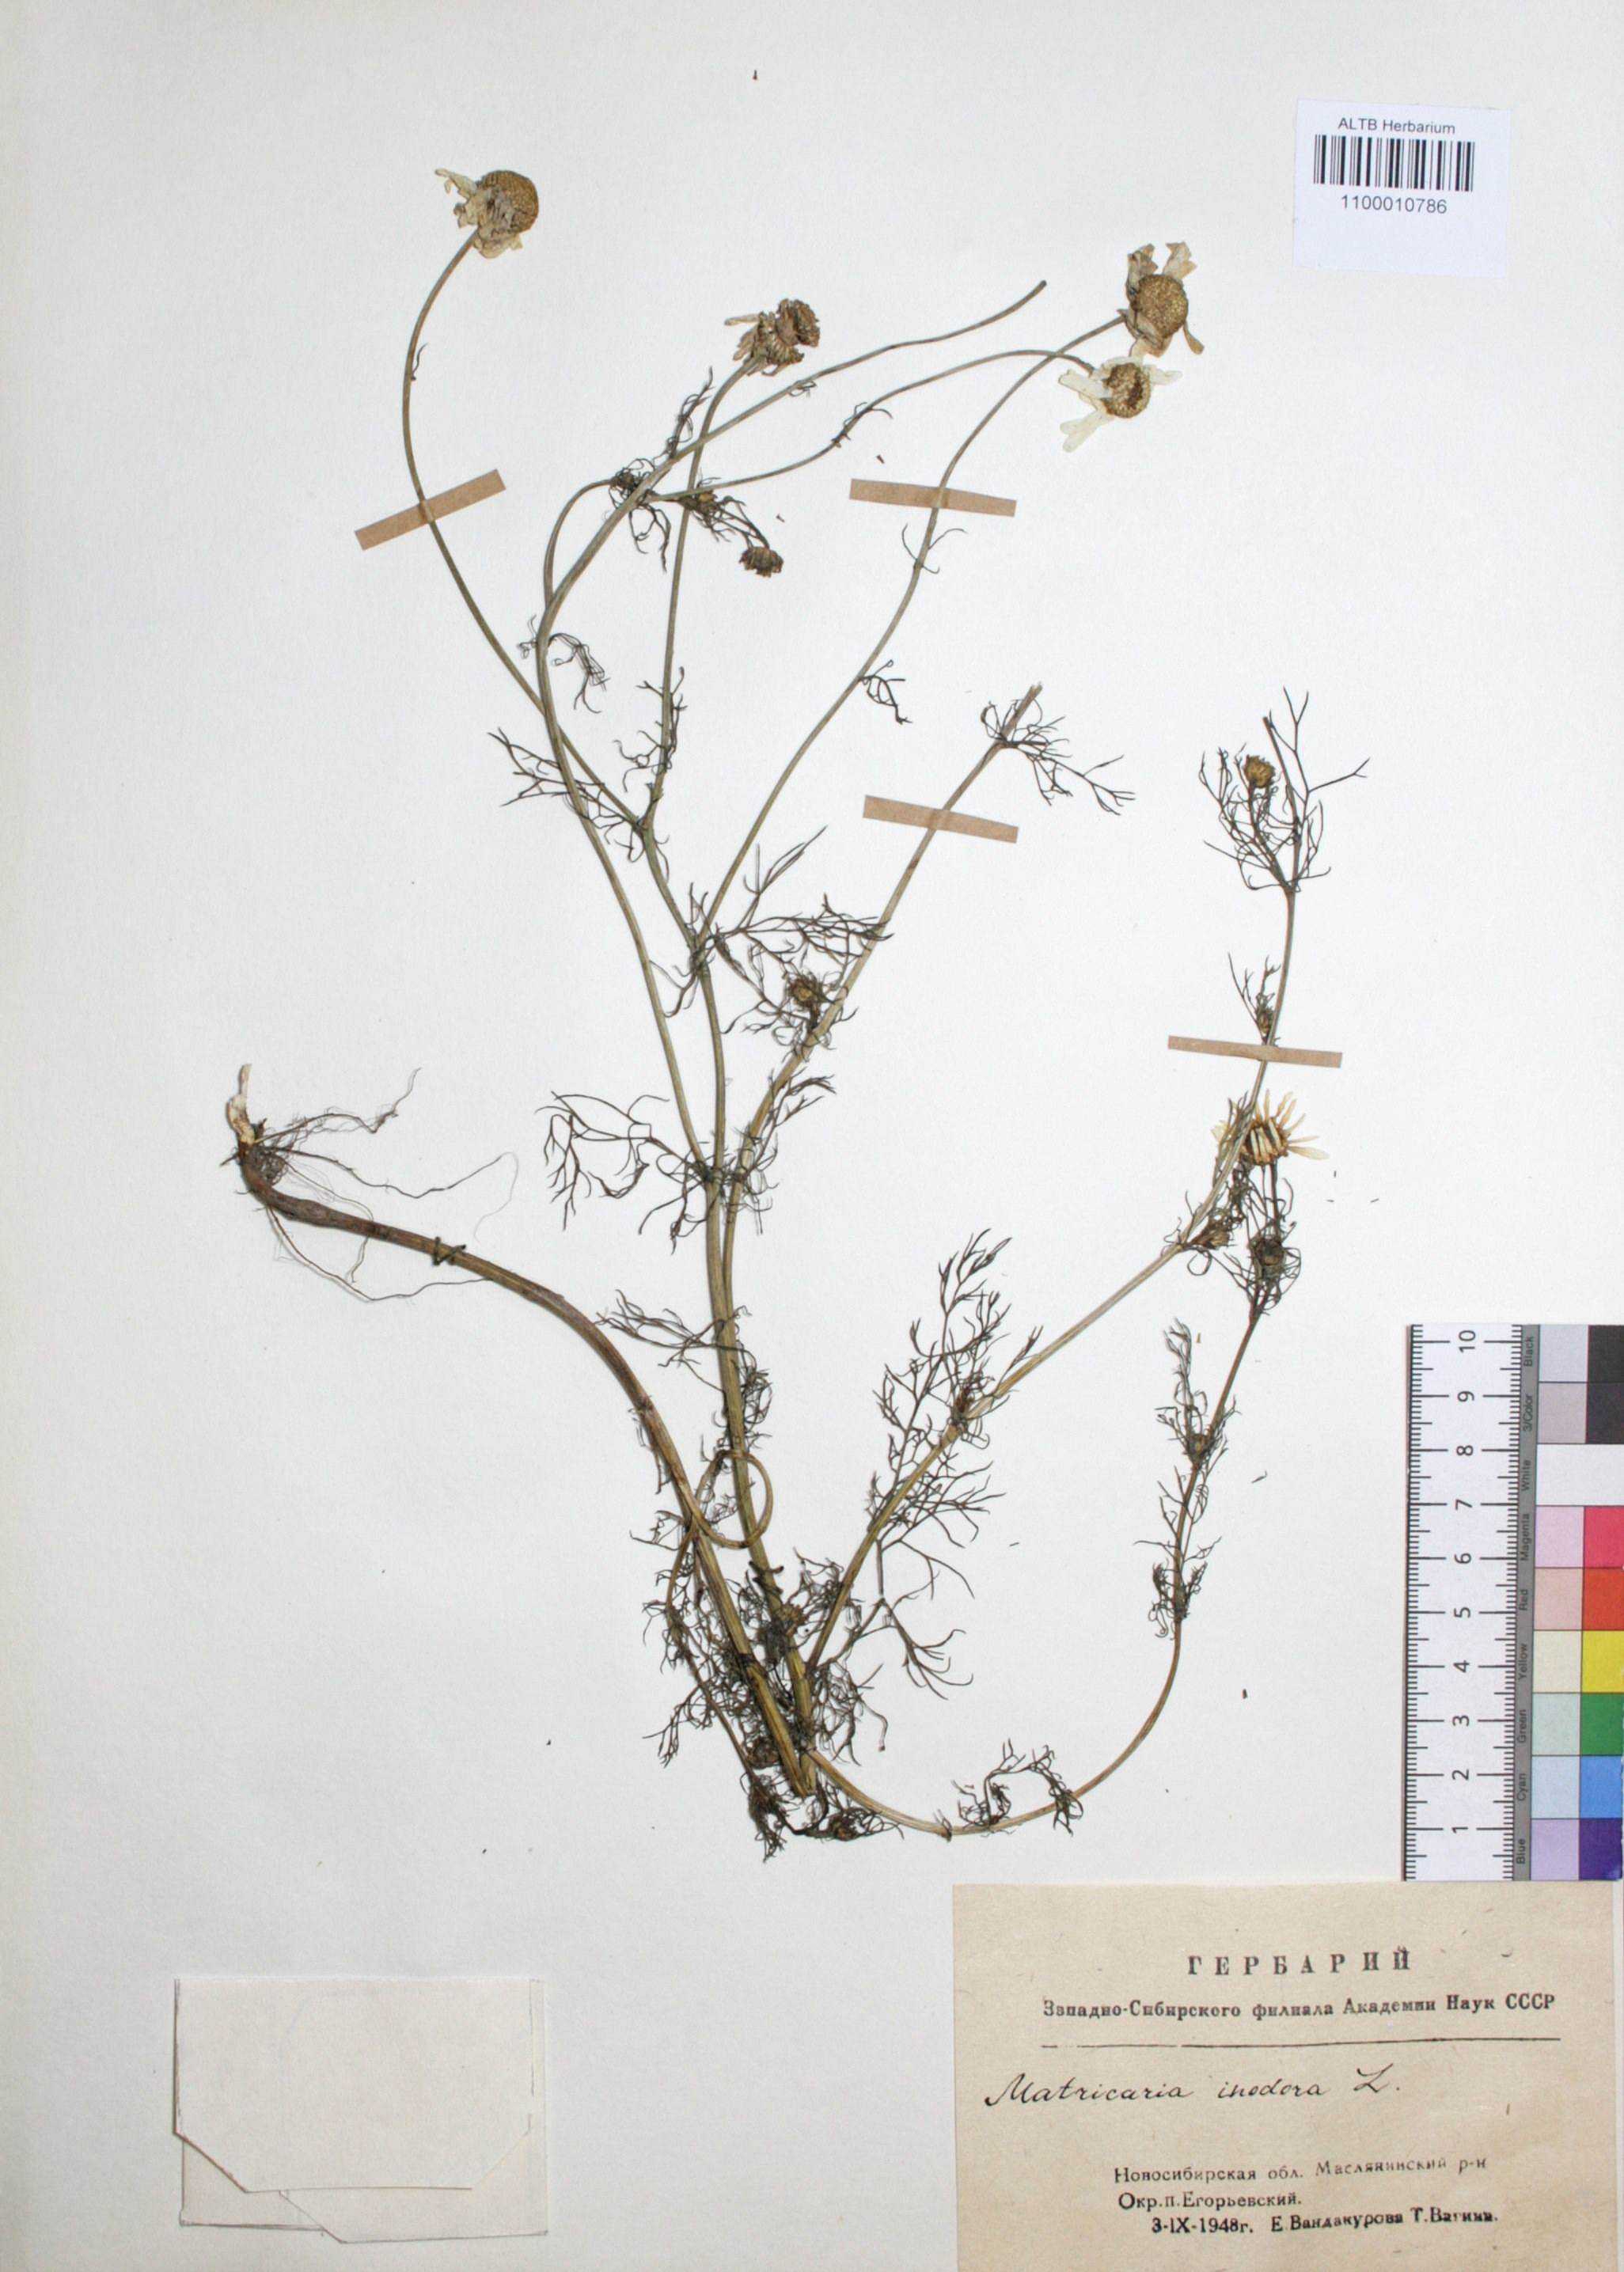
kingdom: Plantae
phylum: Tracheophyta
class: Magnoliopsida
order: Asterales
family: Asteraceae
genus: Tripleurospermum
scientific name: Tripleurospermum inodorum
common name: Scentless mayweed
